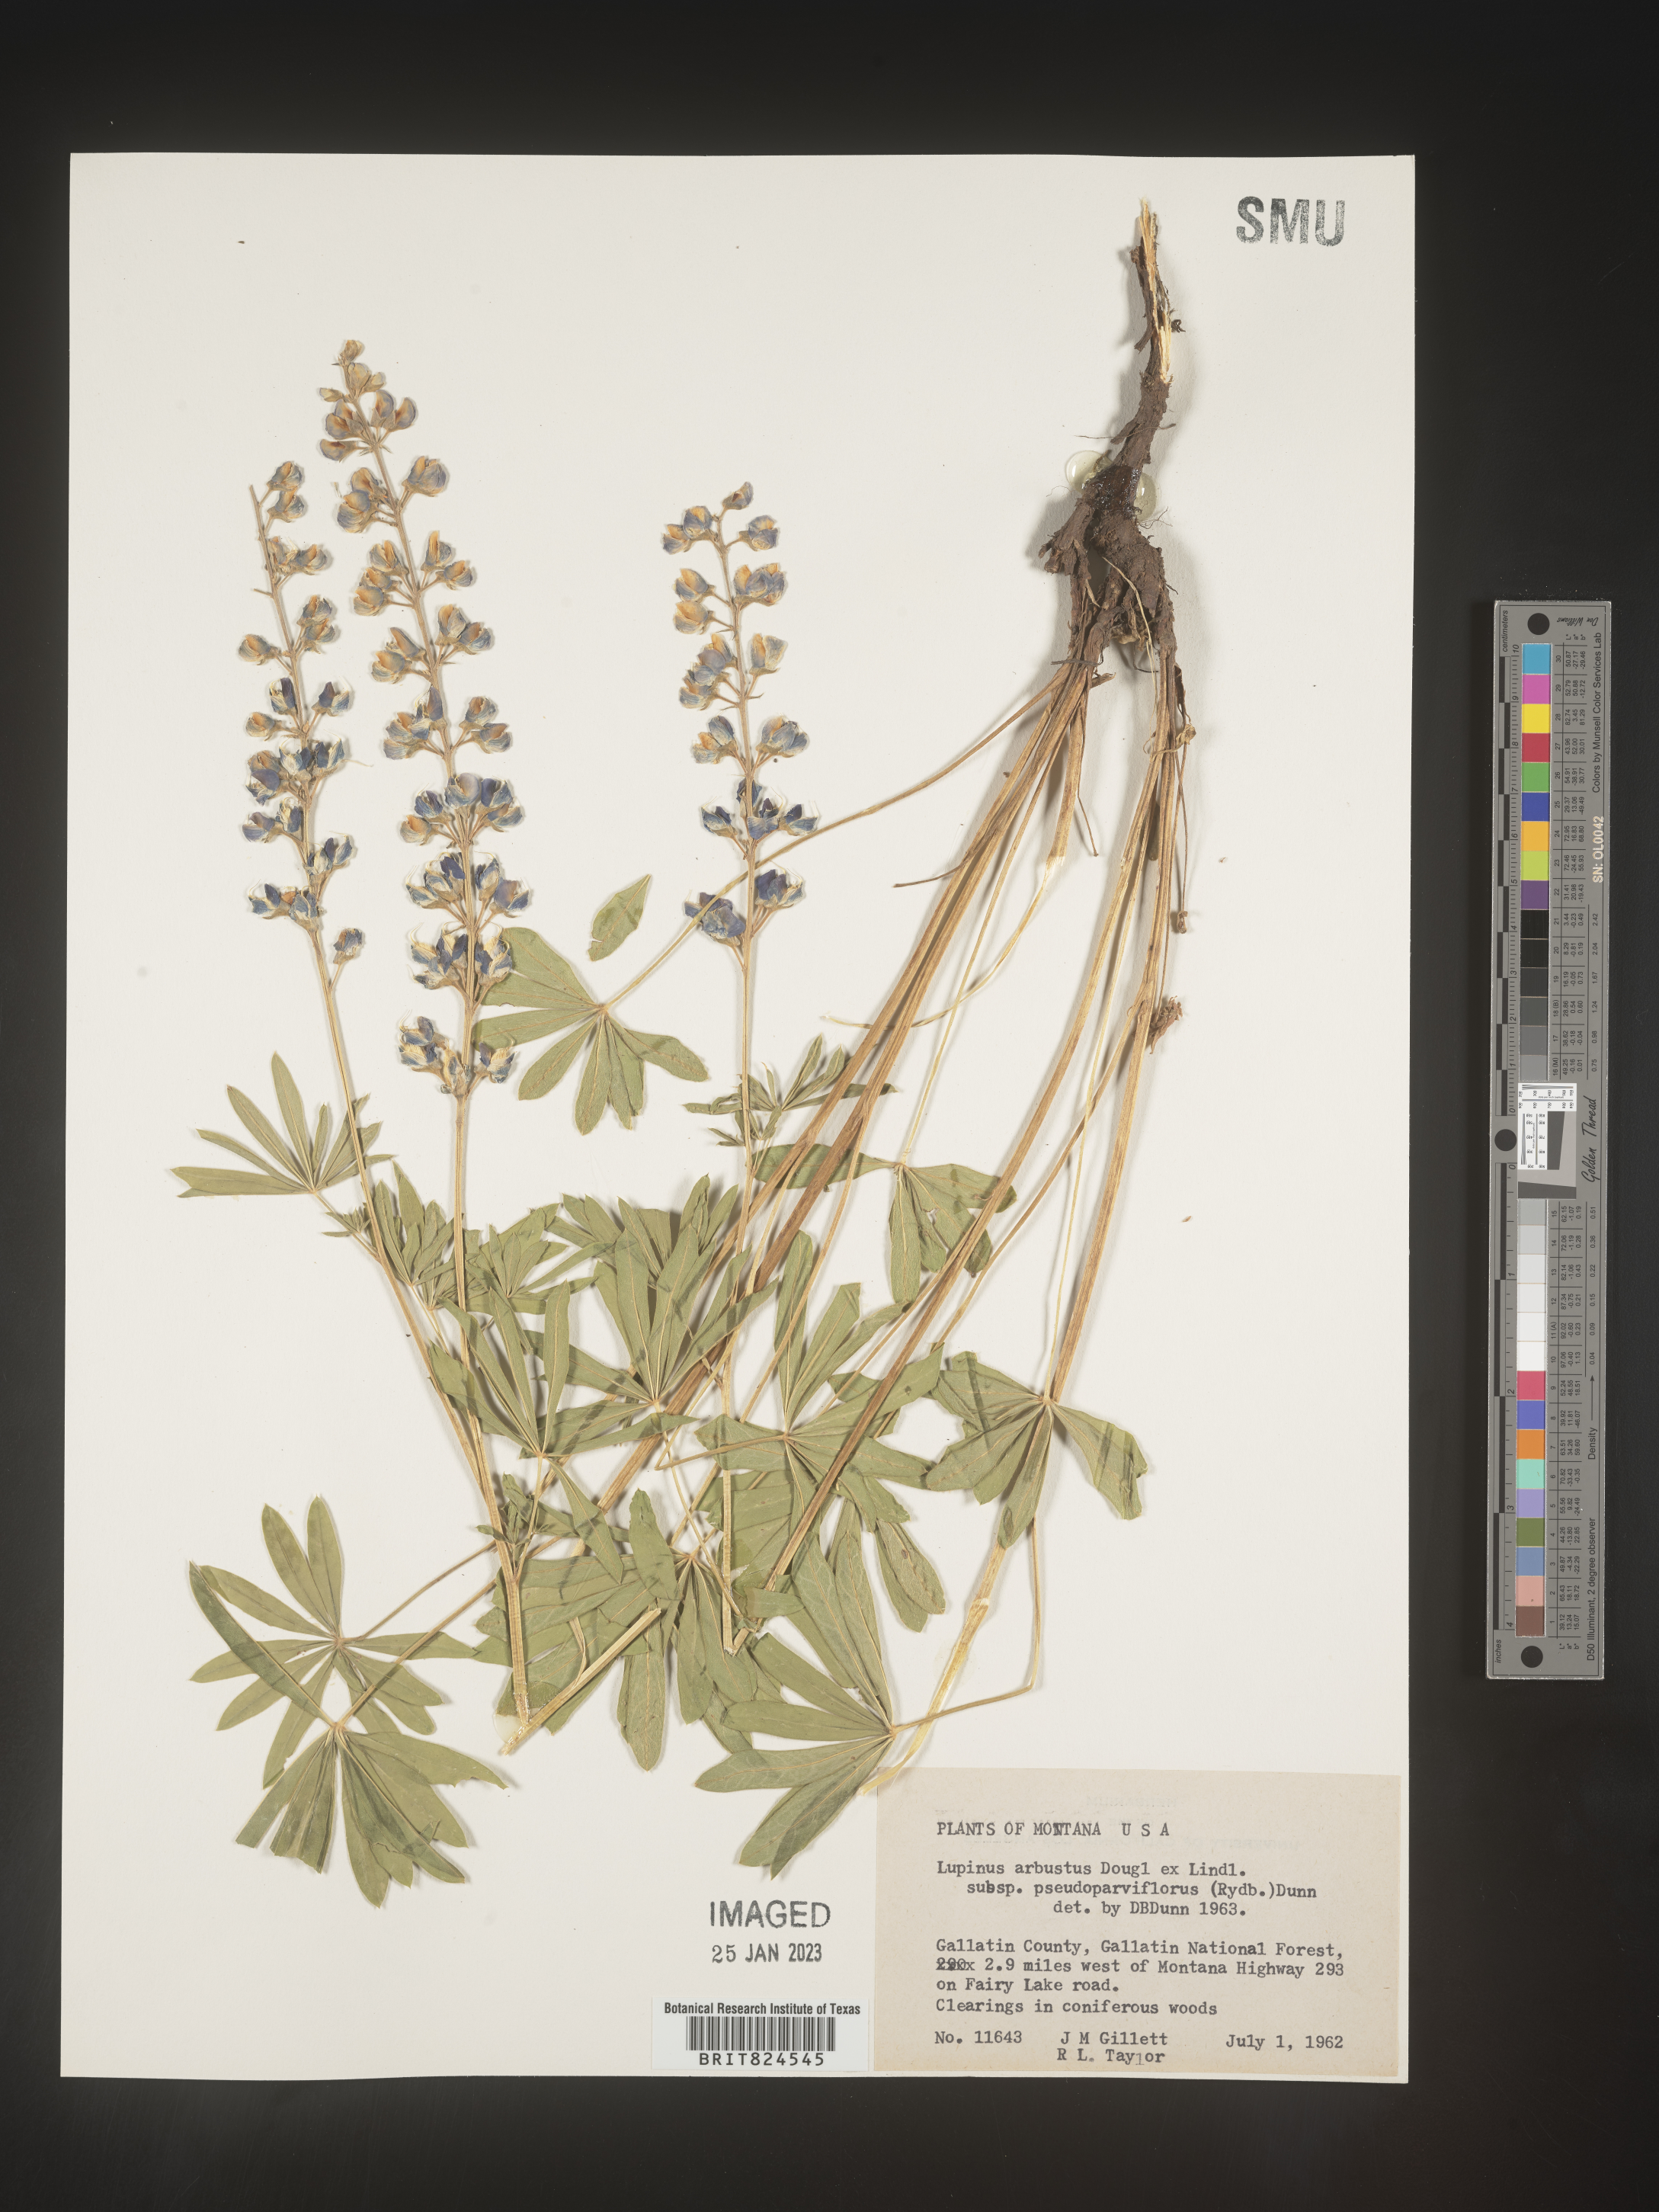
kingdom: Plantae
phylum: Tracheophyta
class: Magnoliopsida
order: Fabales
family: Fabaceae
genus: Lupinus
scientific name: Lupinus arbustus
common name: Montana lupine
